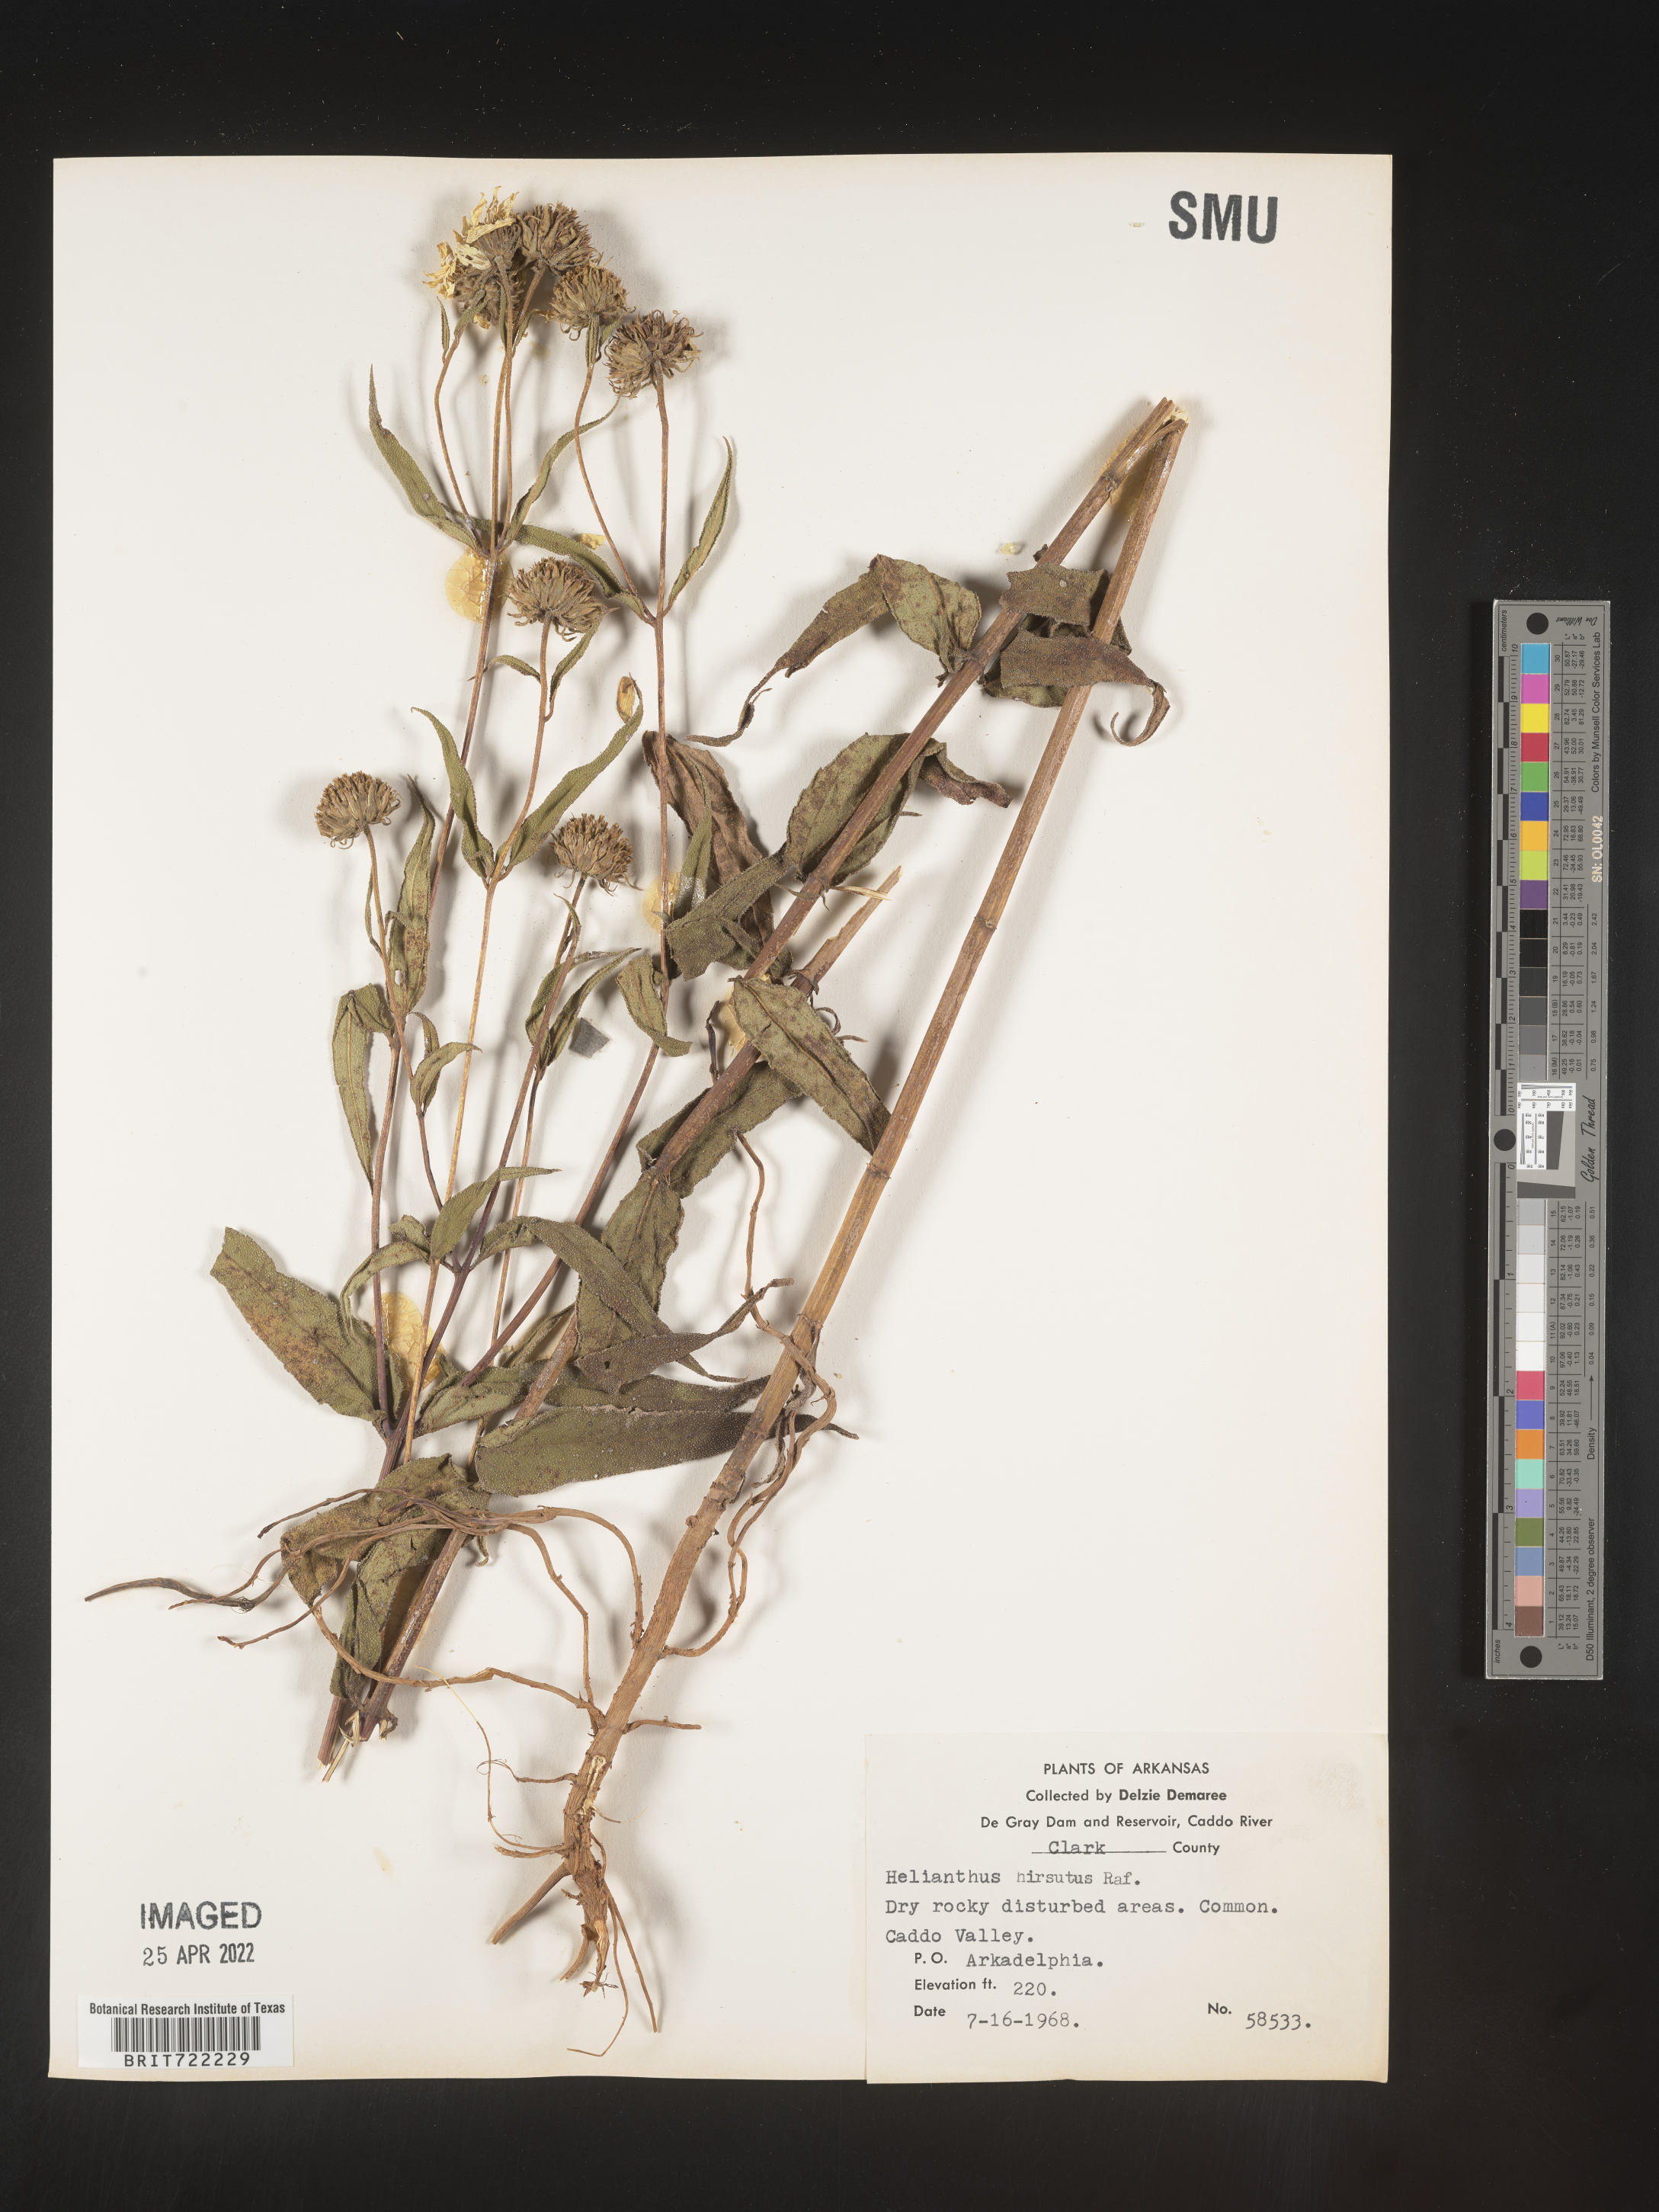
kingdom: Plantae
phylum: Tracheophyta
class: Magnoliopsida
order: Asterales
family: Asteraceae
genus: Helianthus
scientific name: Helianthus hirsutus
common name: Hairy sunflower
